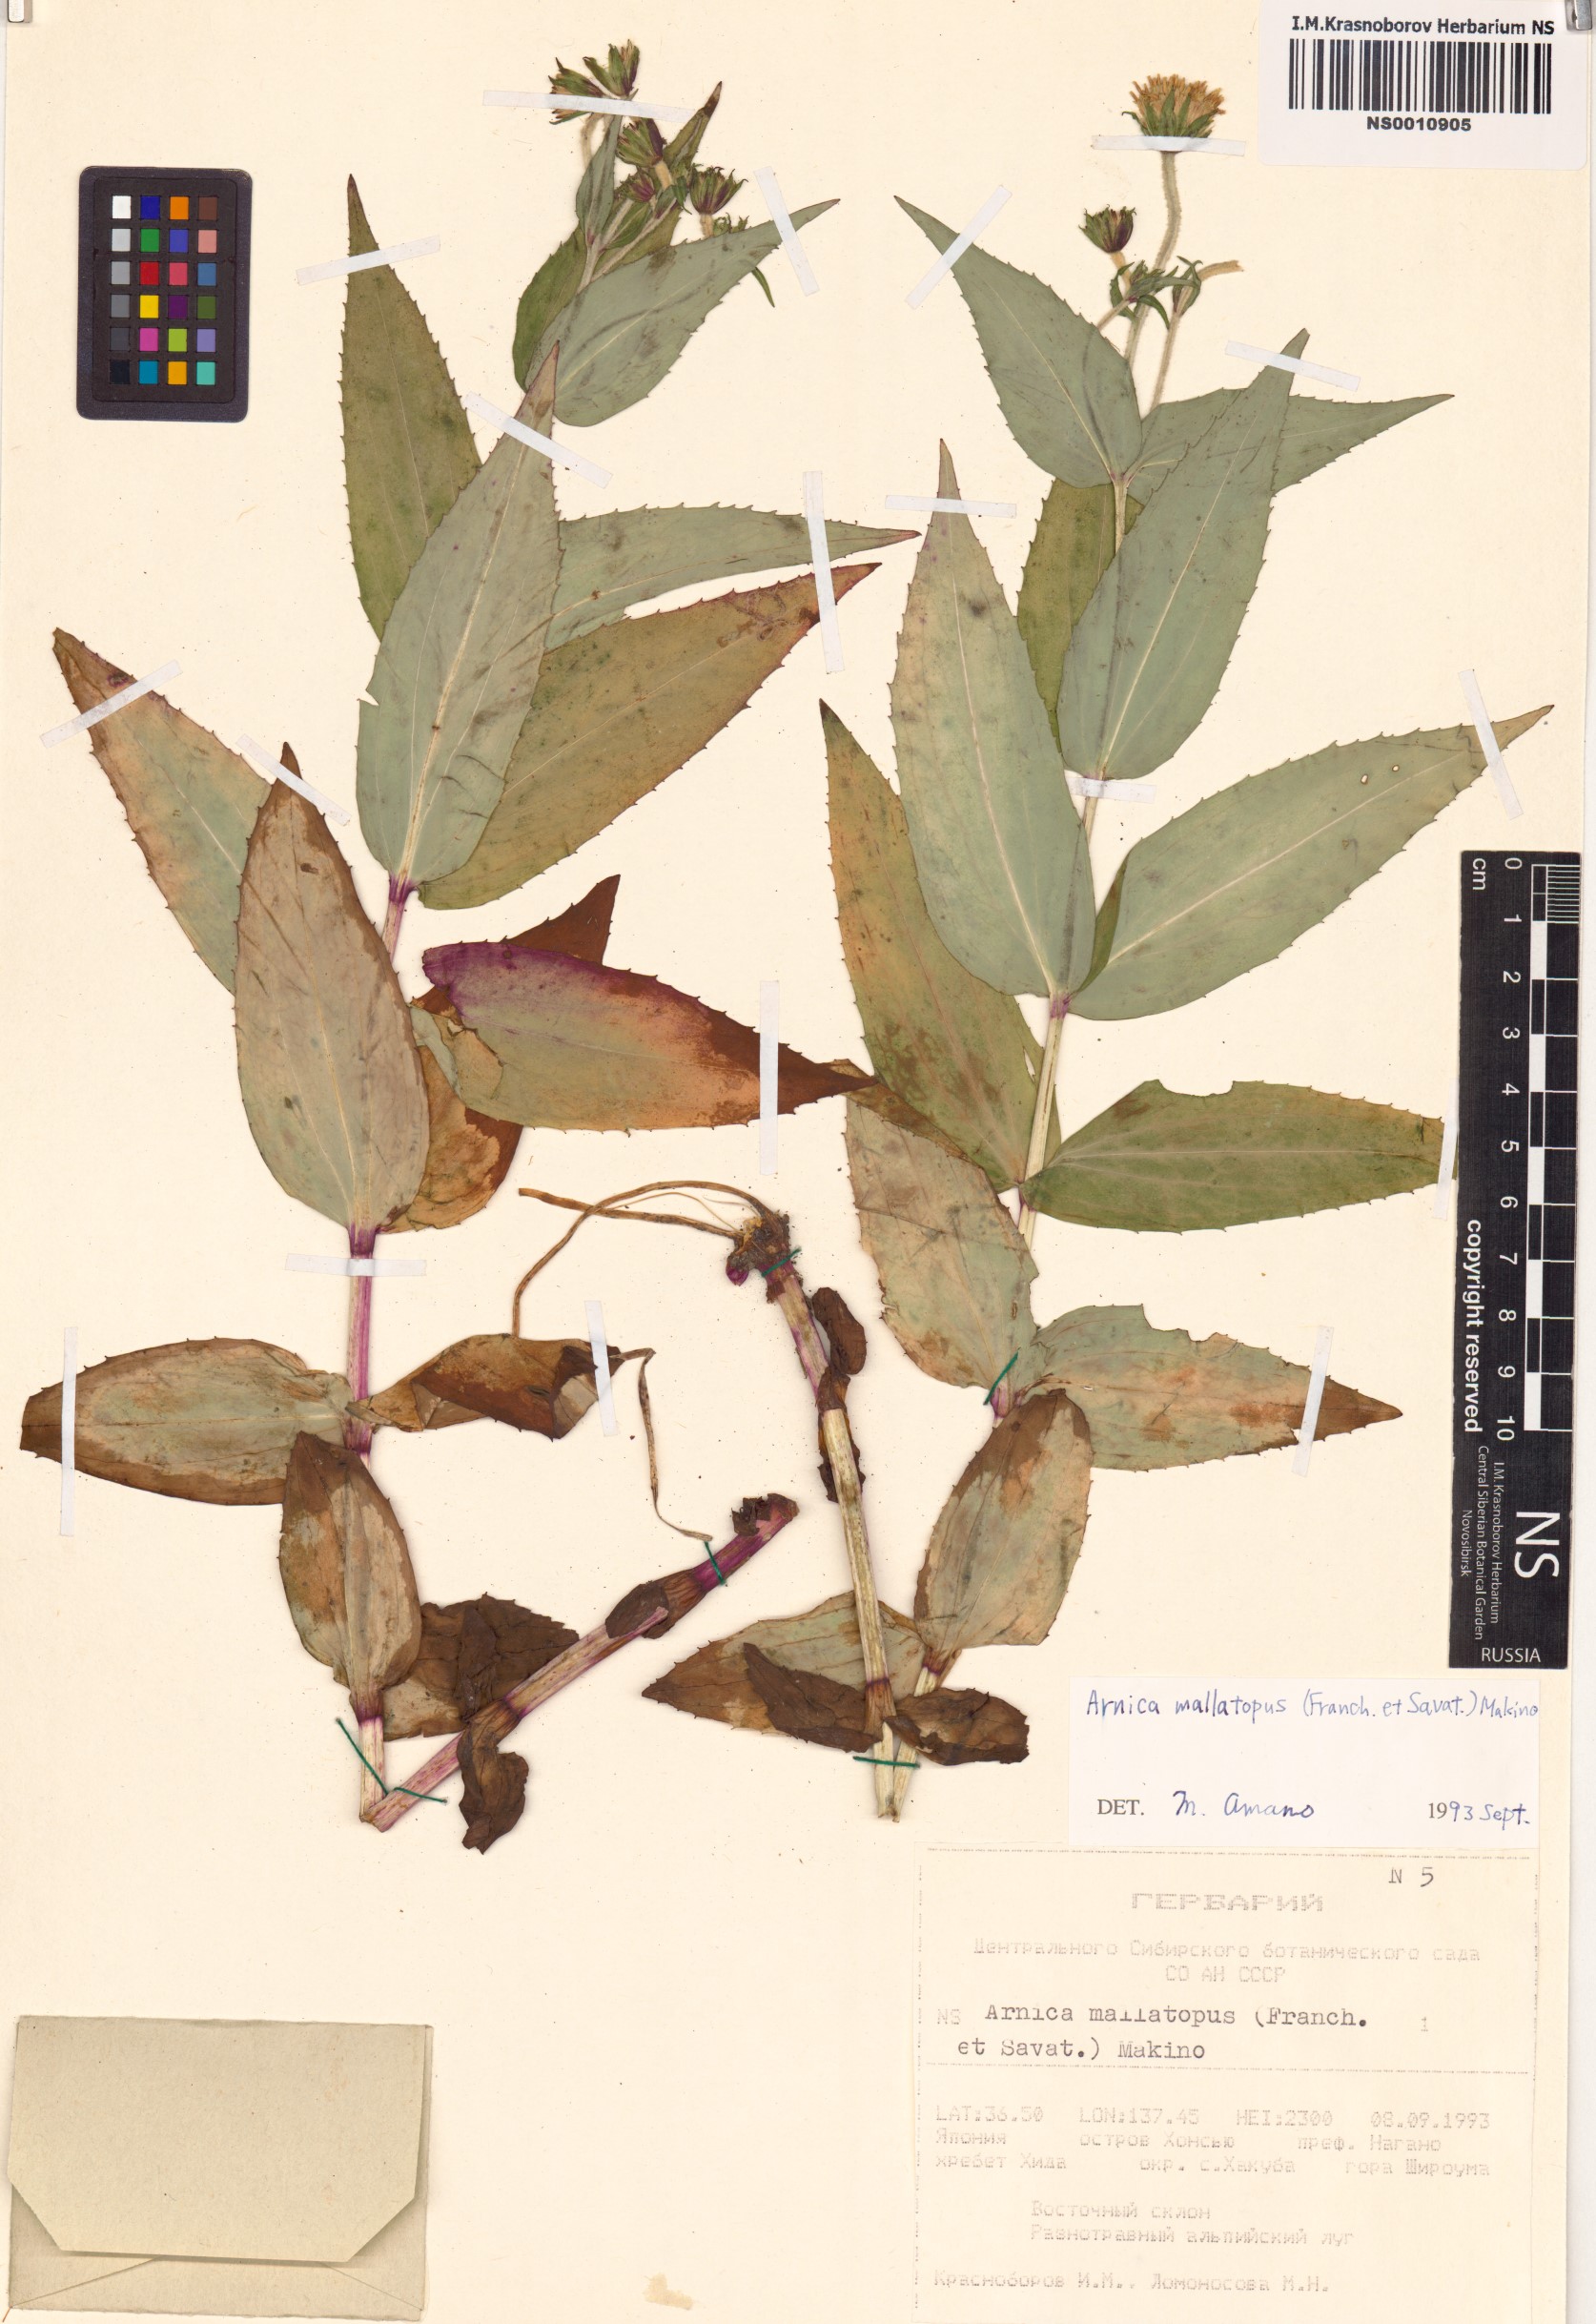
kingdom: Plantae
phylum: Tracheophyta
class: Magnoliopsida
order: Asterales
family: Asteraceae
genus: Arnica
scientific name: Arnica mallotopus
